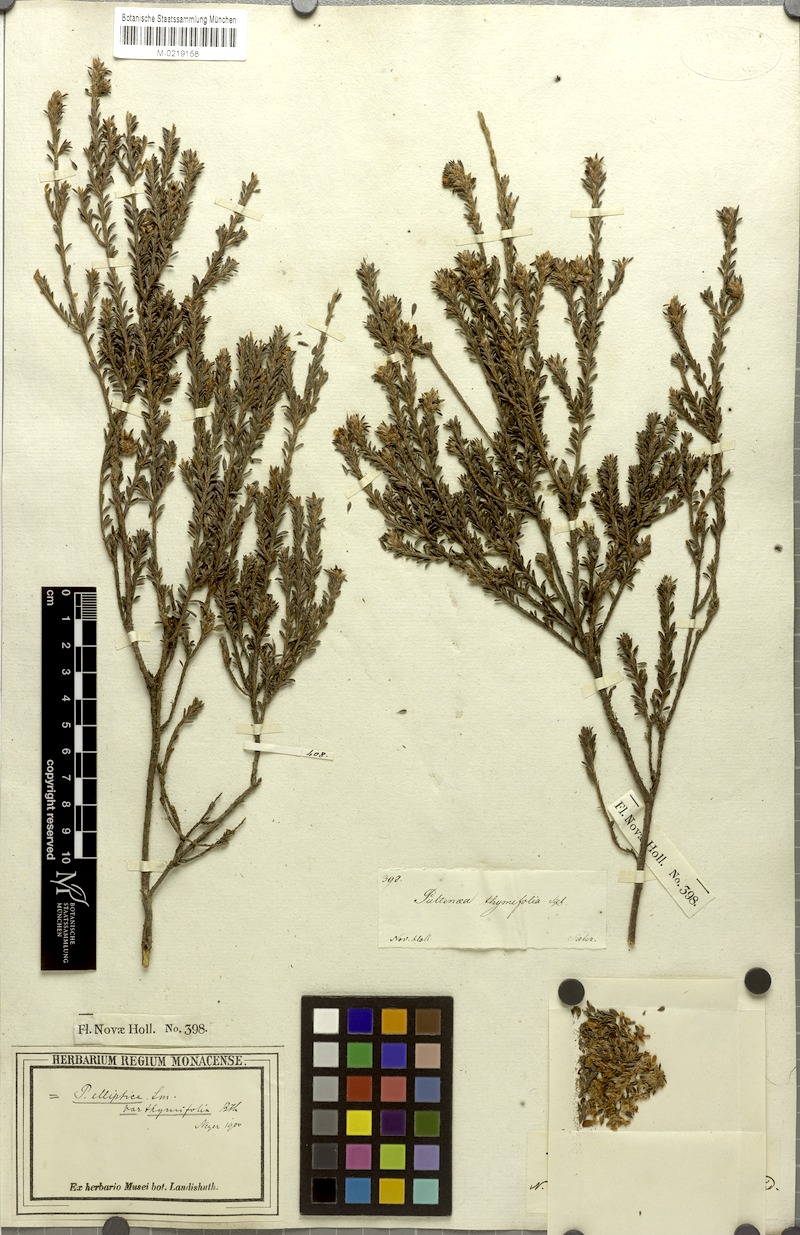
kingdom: Plantae
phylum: Tracheophyta
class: Magnoliopsida
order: Fabales
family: Fabaceae
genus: Pultenaea
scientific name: Pultenaea tuberculata
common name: Wreath bush-pea
